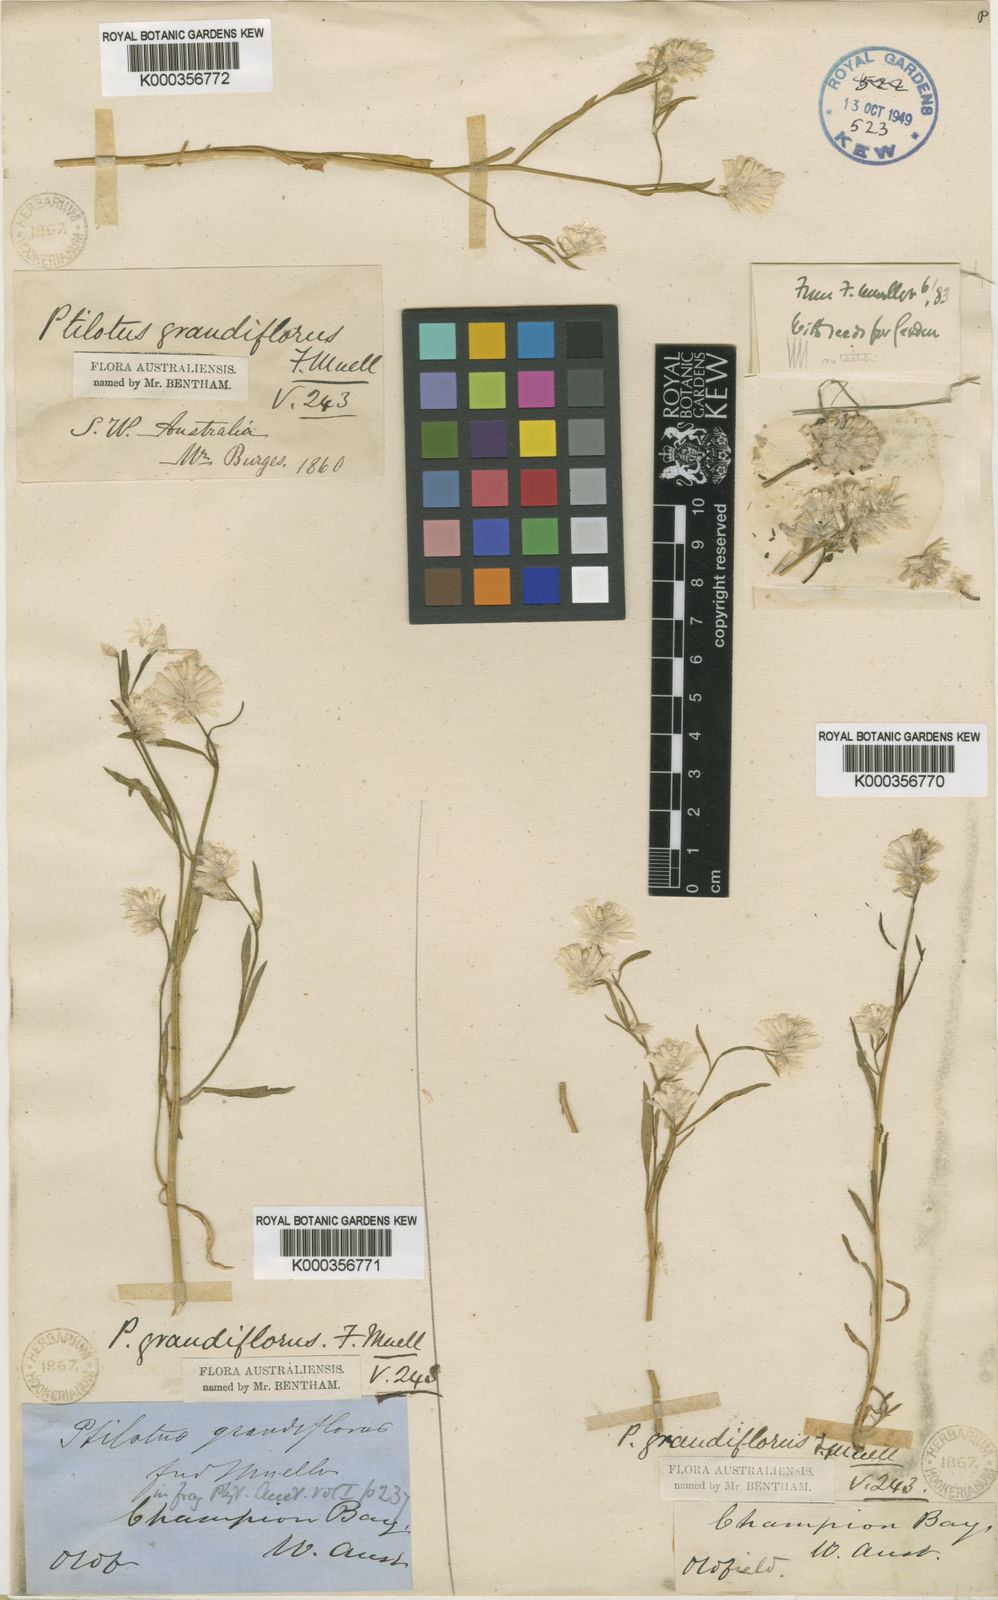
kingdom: Plantae
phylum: Tracheophyta
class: Magnoliopsida
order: Caryophyllales
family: Amaranthaceae
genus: Ptilotus
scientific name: Ptilotus grandiflorus
